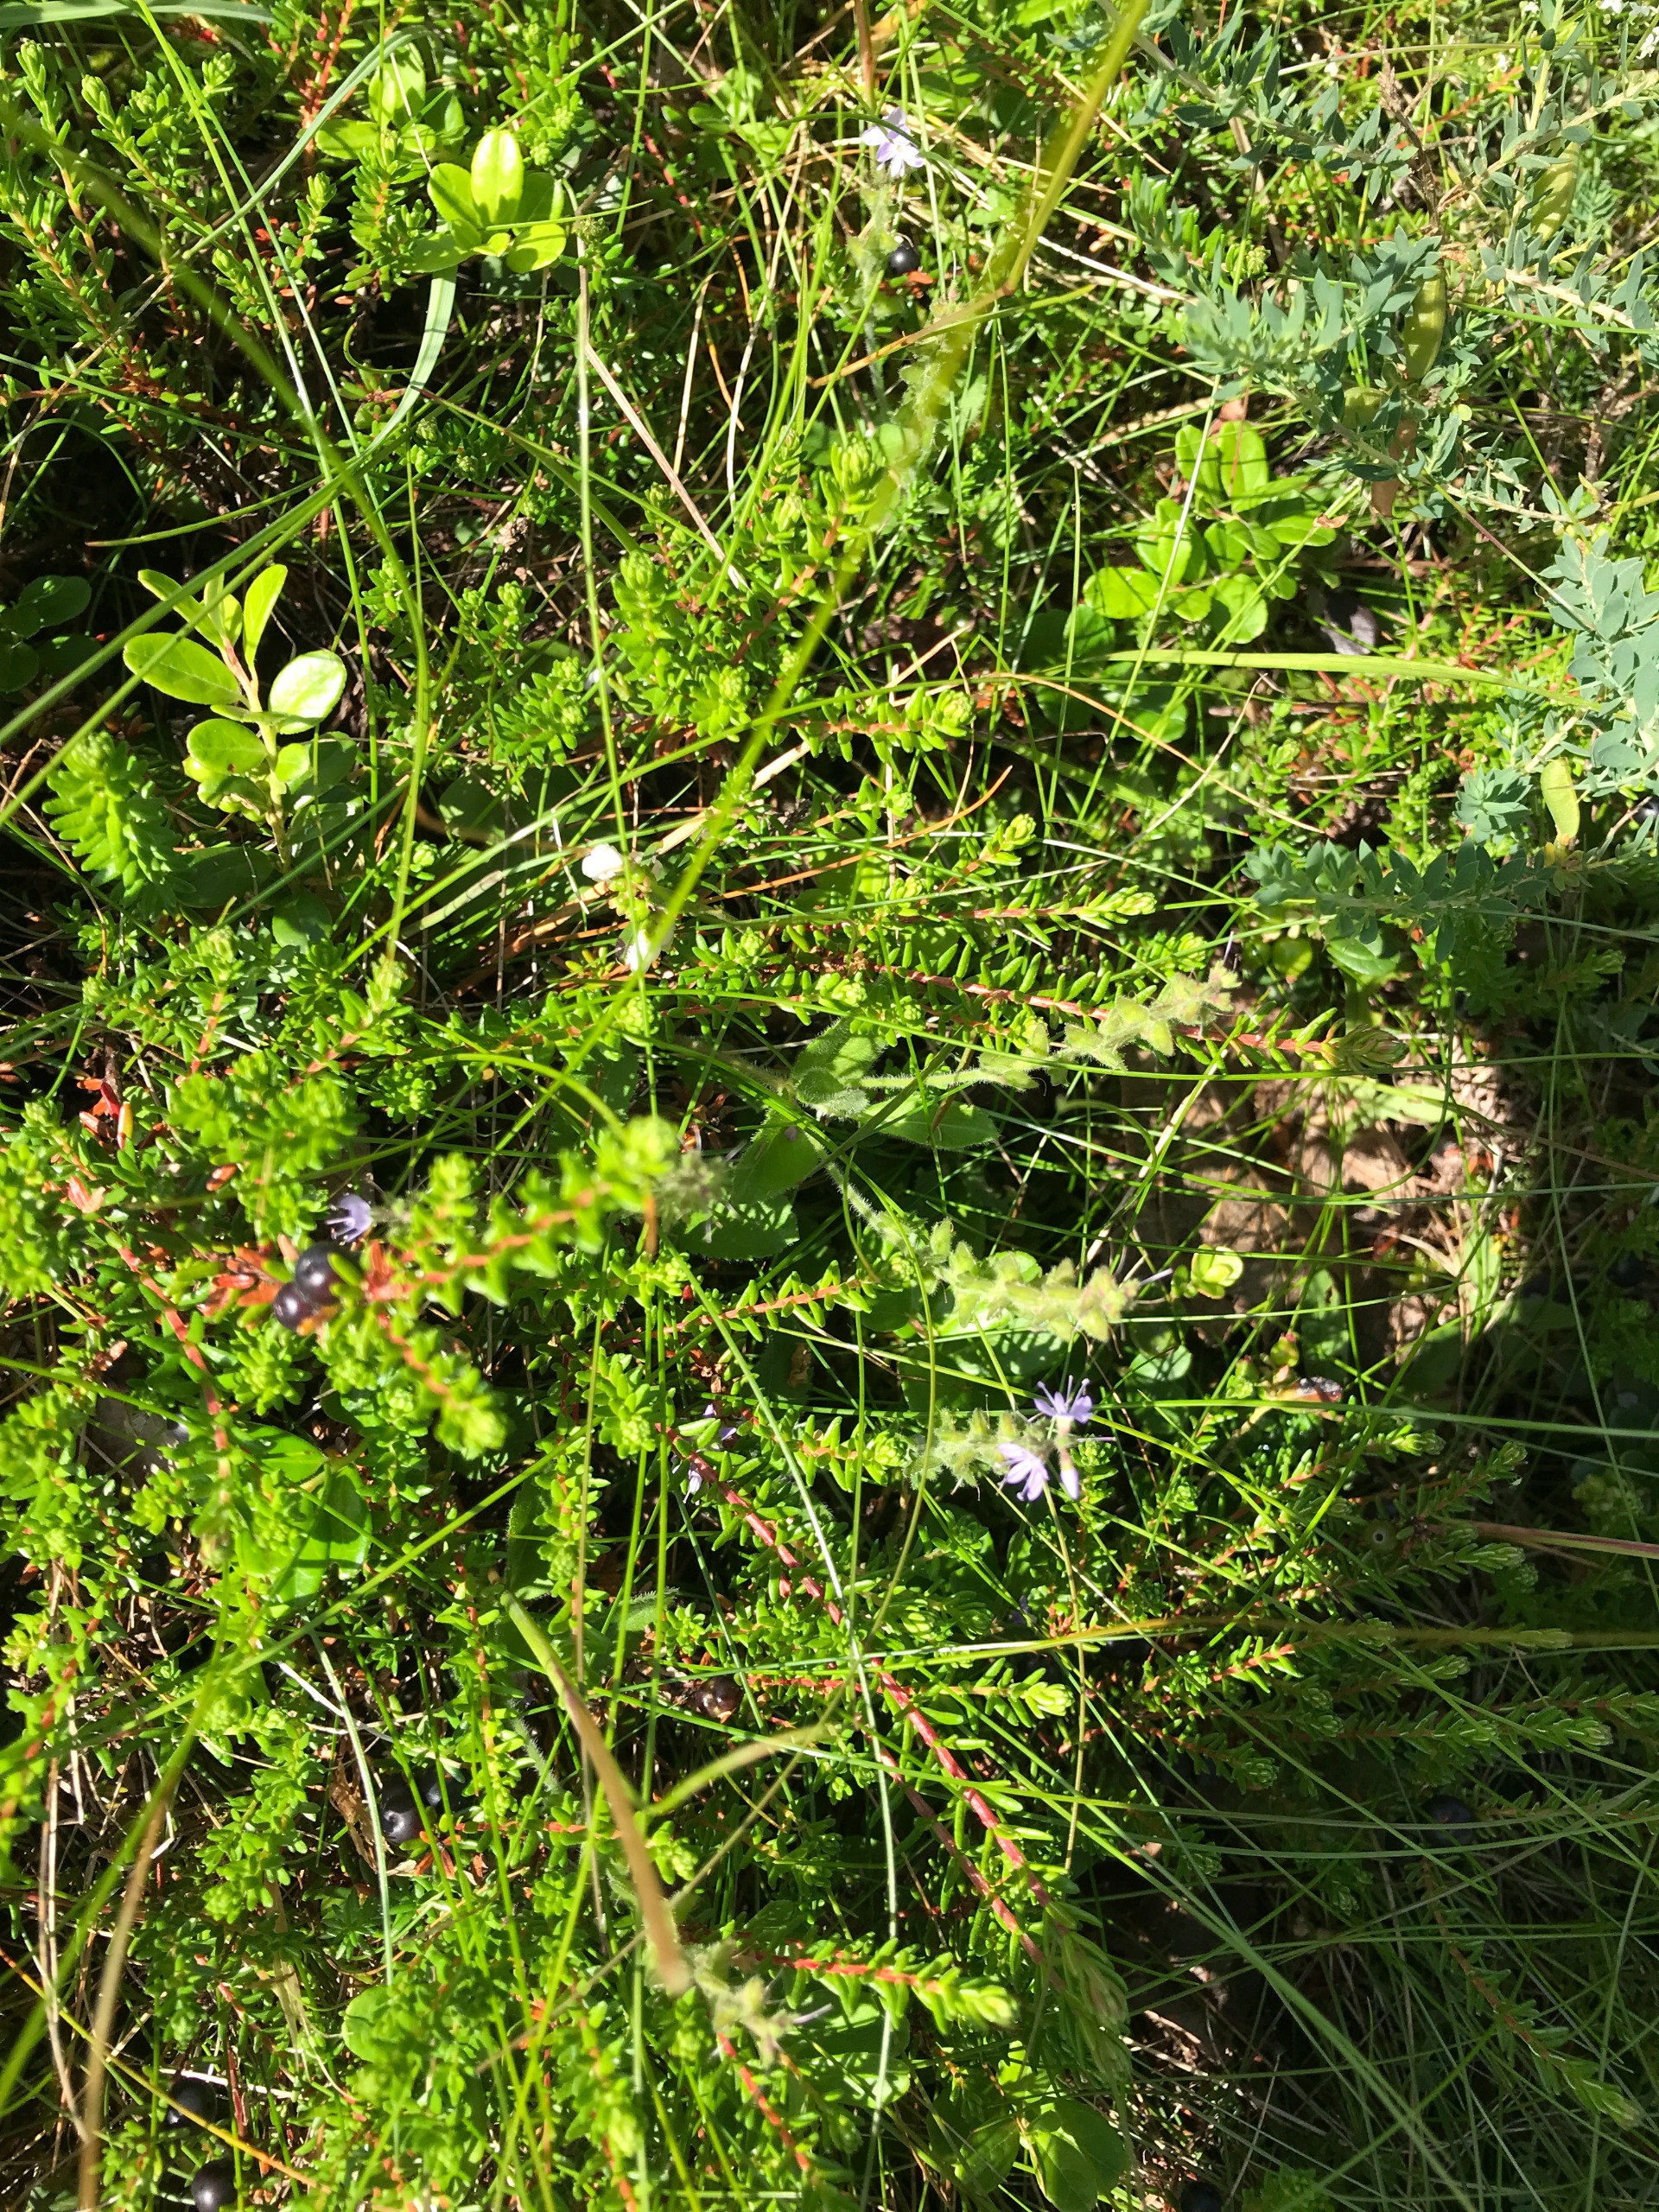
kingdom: Plantae
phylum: Tracheophyta
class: Magnoliopsida
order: Lamiales
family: Plantaginaceae
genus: Veronica
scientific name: Veronica officinalis
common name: Læge-ærenpris
